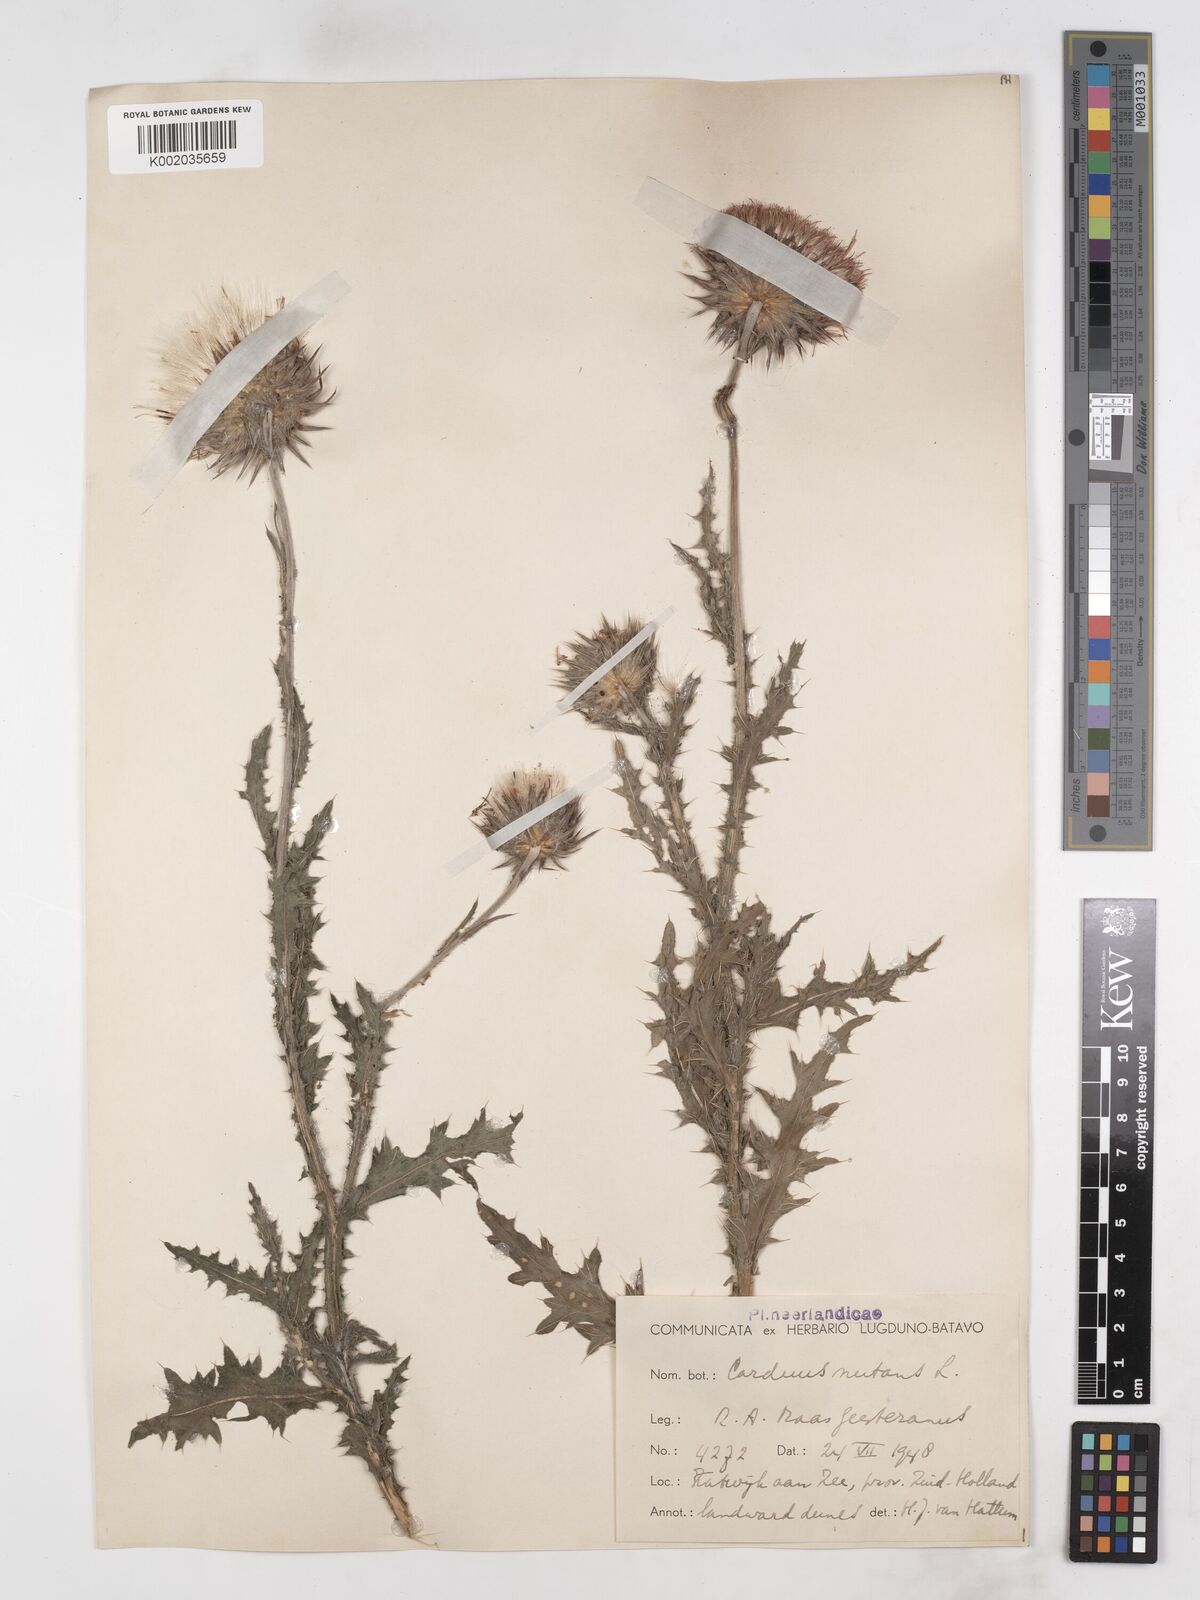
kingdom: Plantae
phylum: Tracheophyta
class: Magnoliopsida
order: Asterales
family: Asteraceae
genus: Carduus
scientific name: Carduus nutans
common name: Musk thistle
